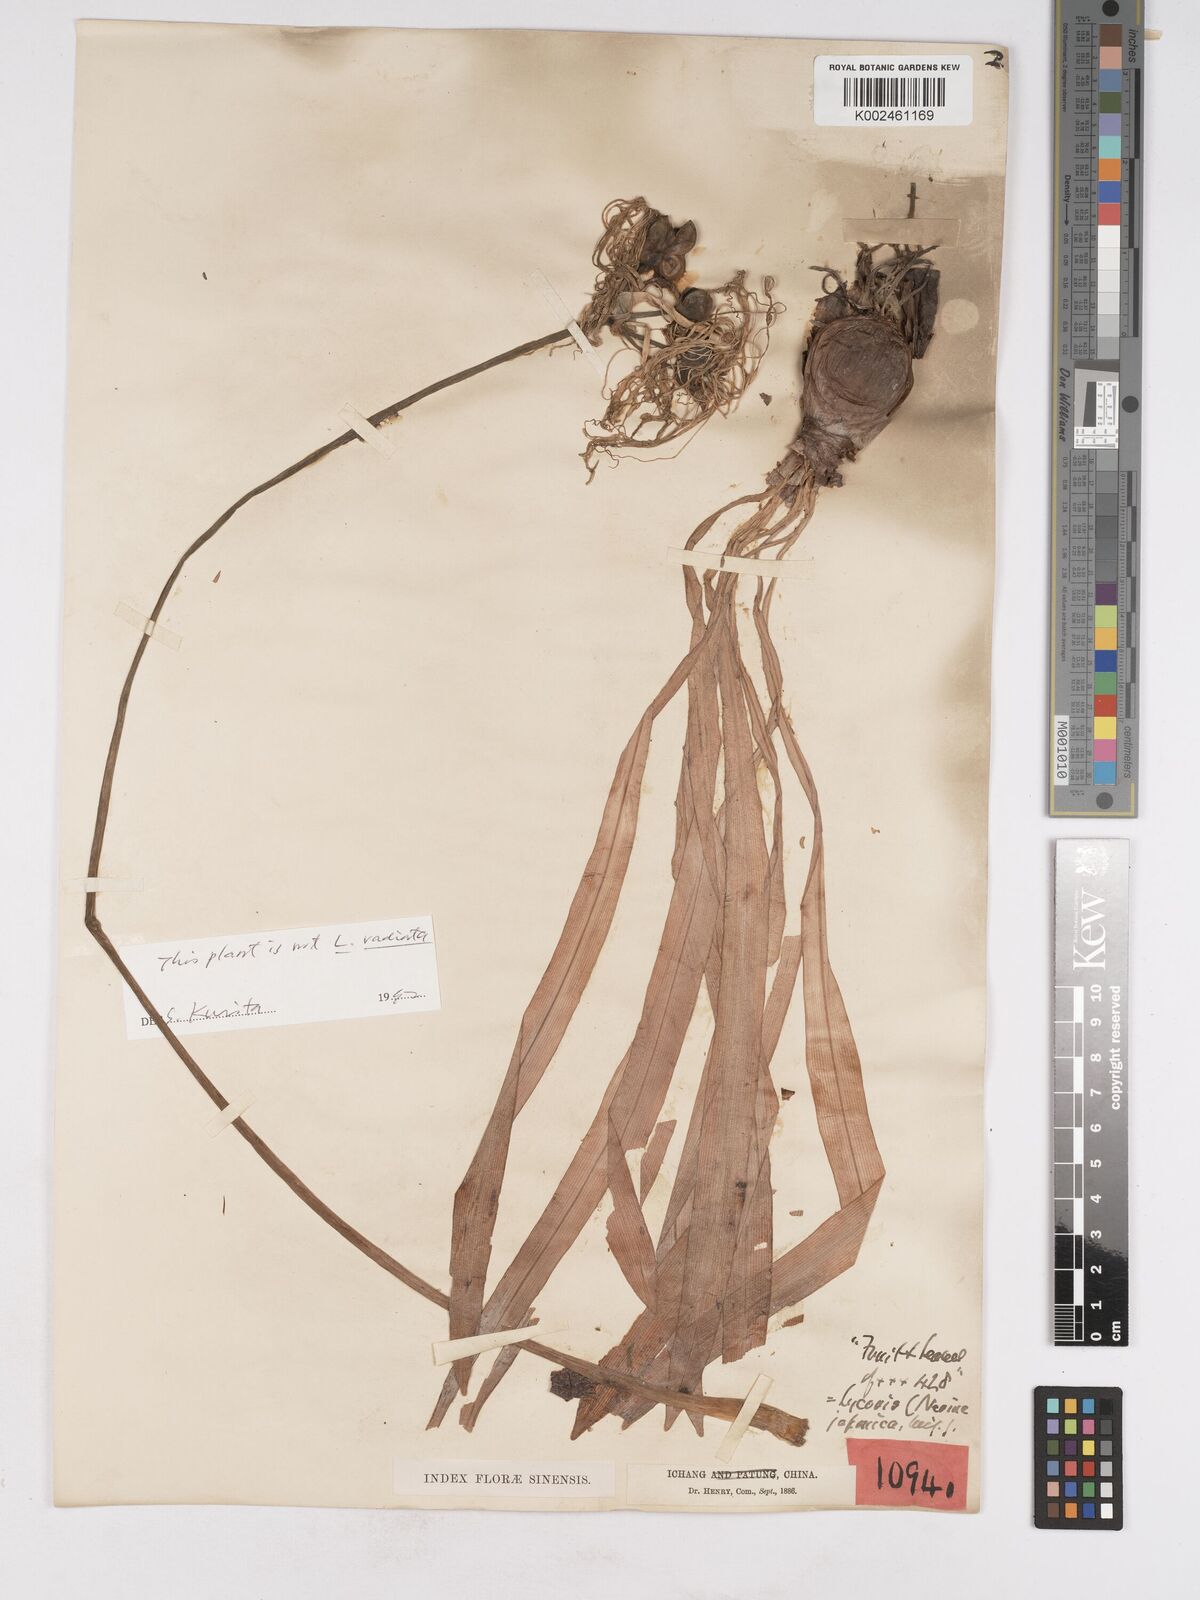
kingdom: Plantae
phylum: Tracheophyta
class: Liliopsida
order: Asparagales
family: Amaryllidaceae
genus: Lycoris
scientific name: Lycoris radiata
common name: Red spider lily
